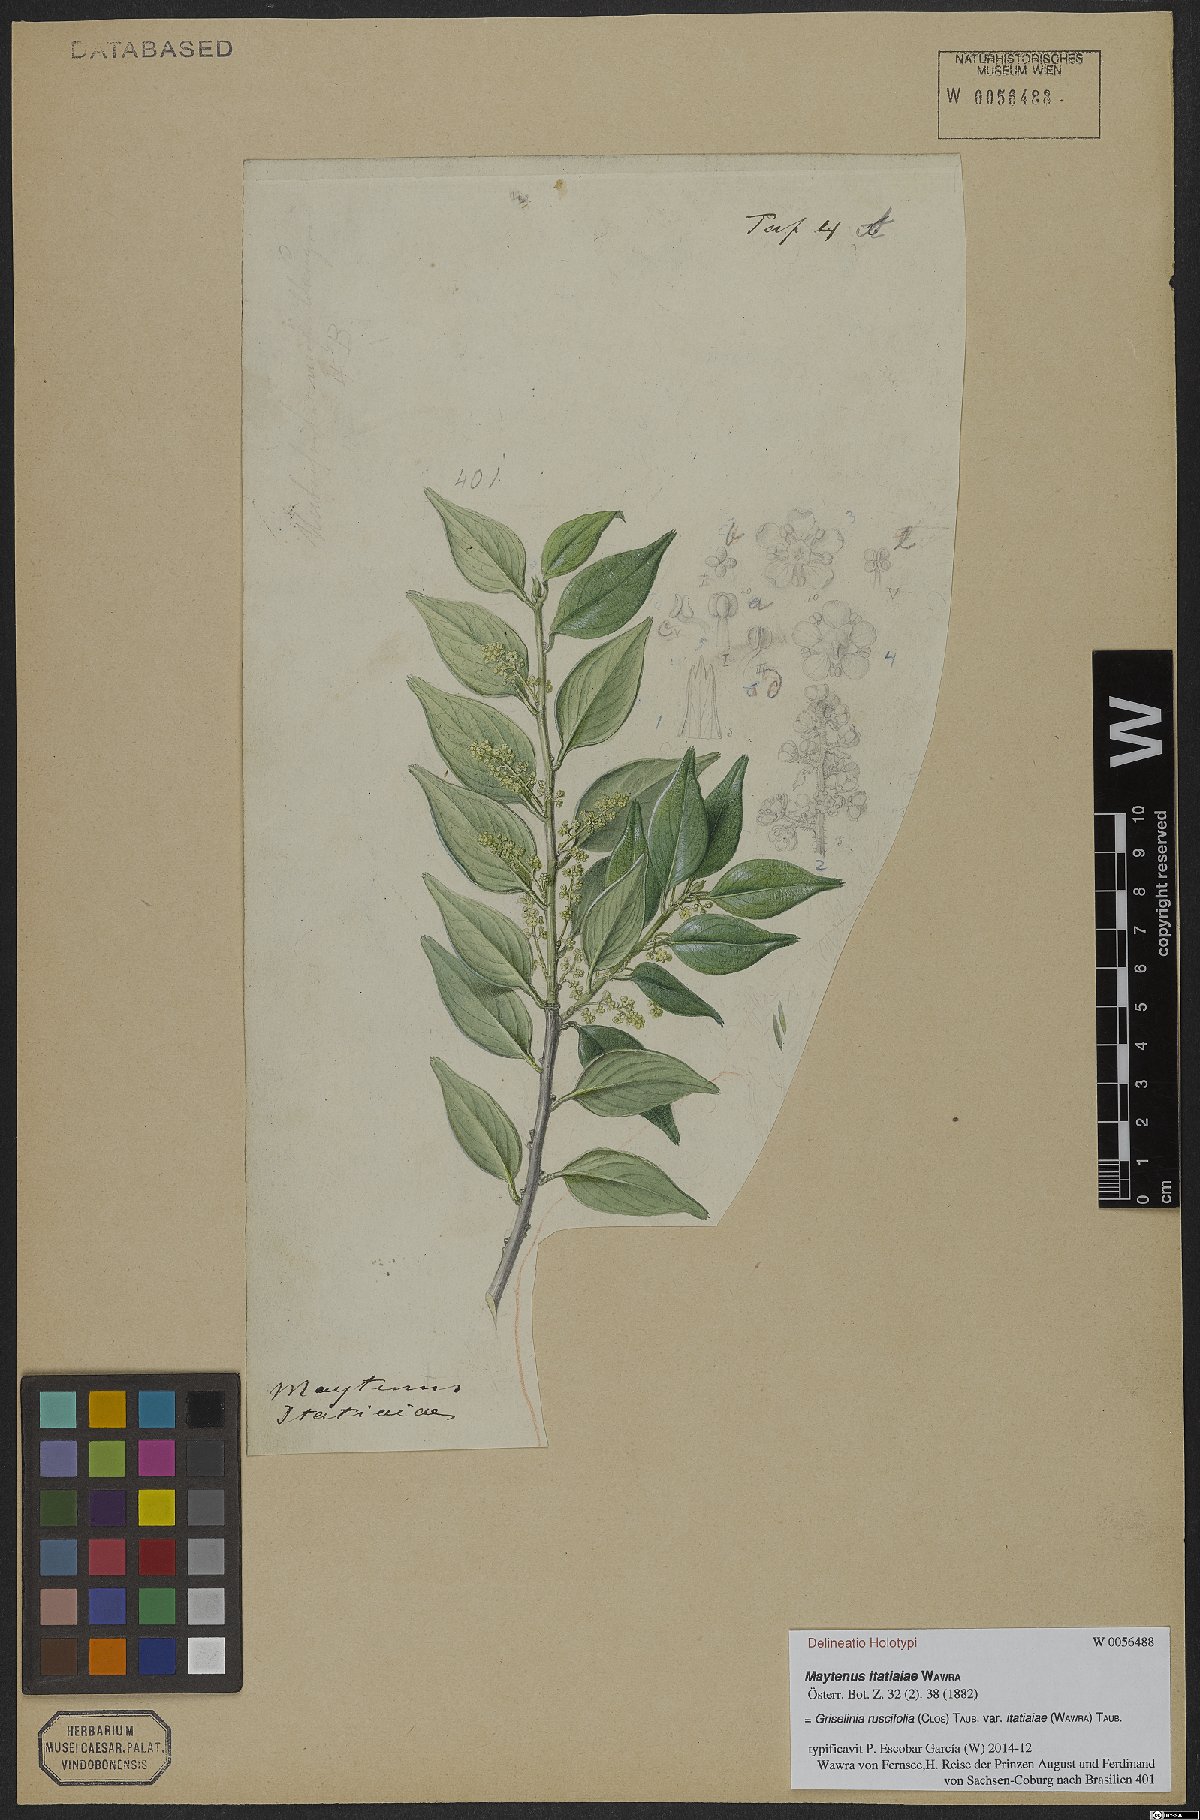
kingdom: Plantae
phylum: Tracheophyta
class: Magnoliopsida
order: Apiales
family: Griseliniaceae
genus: Griselinia
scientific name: Griselinia ruscifolia
